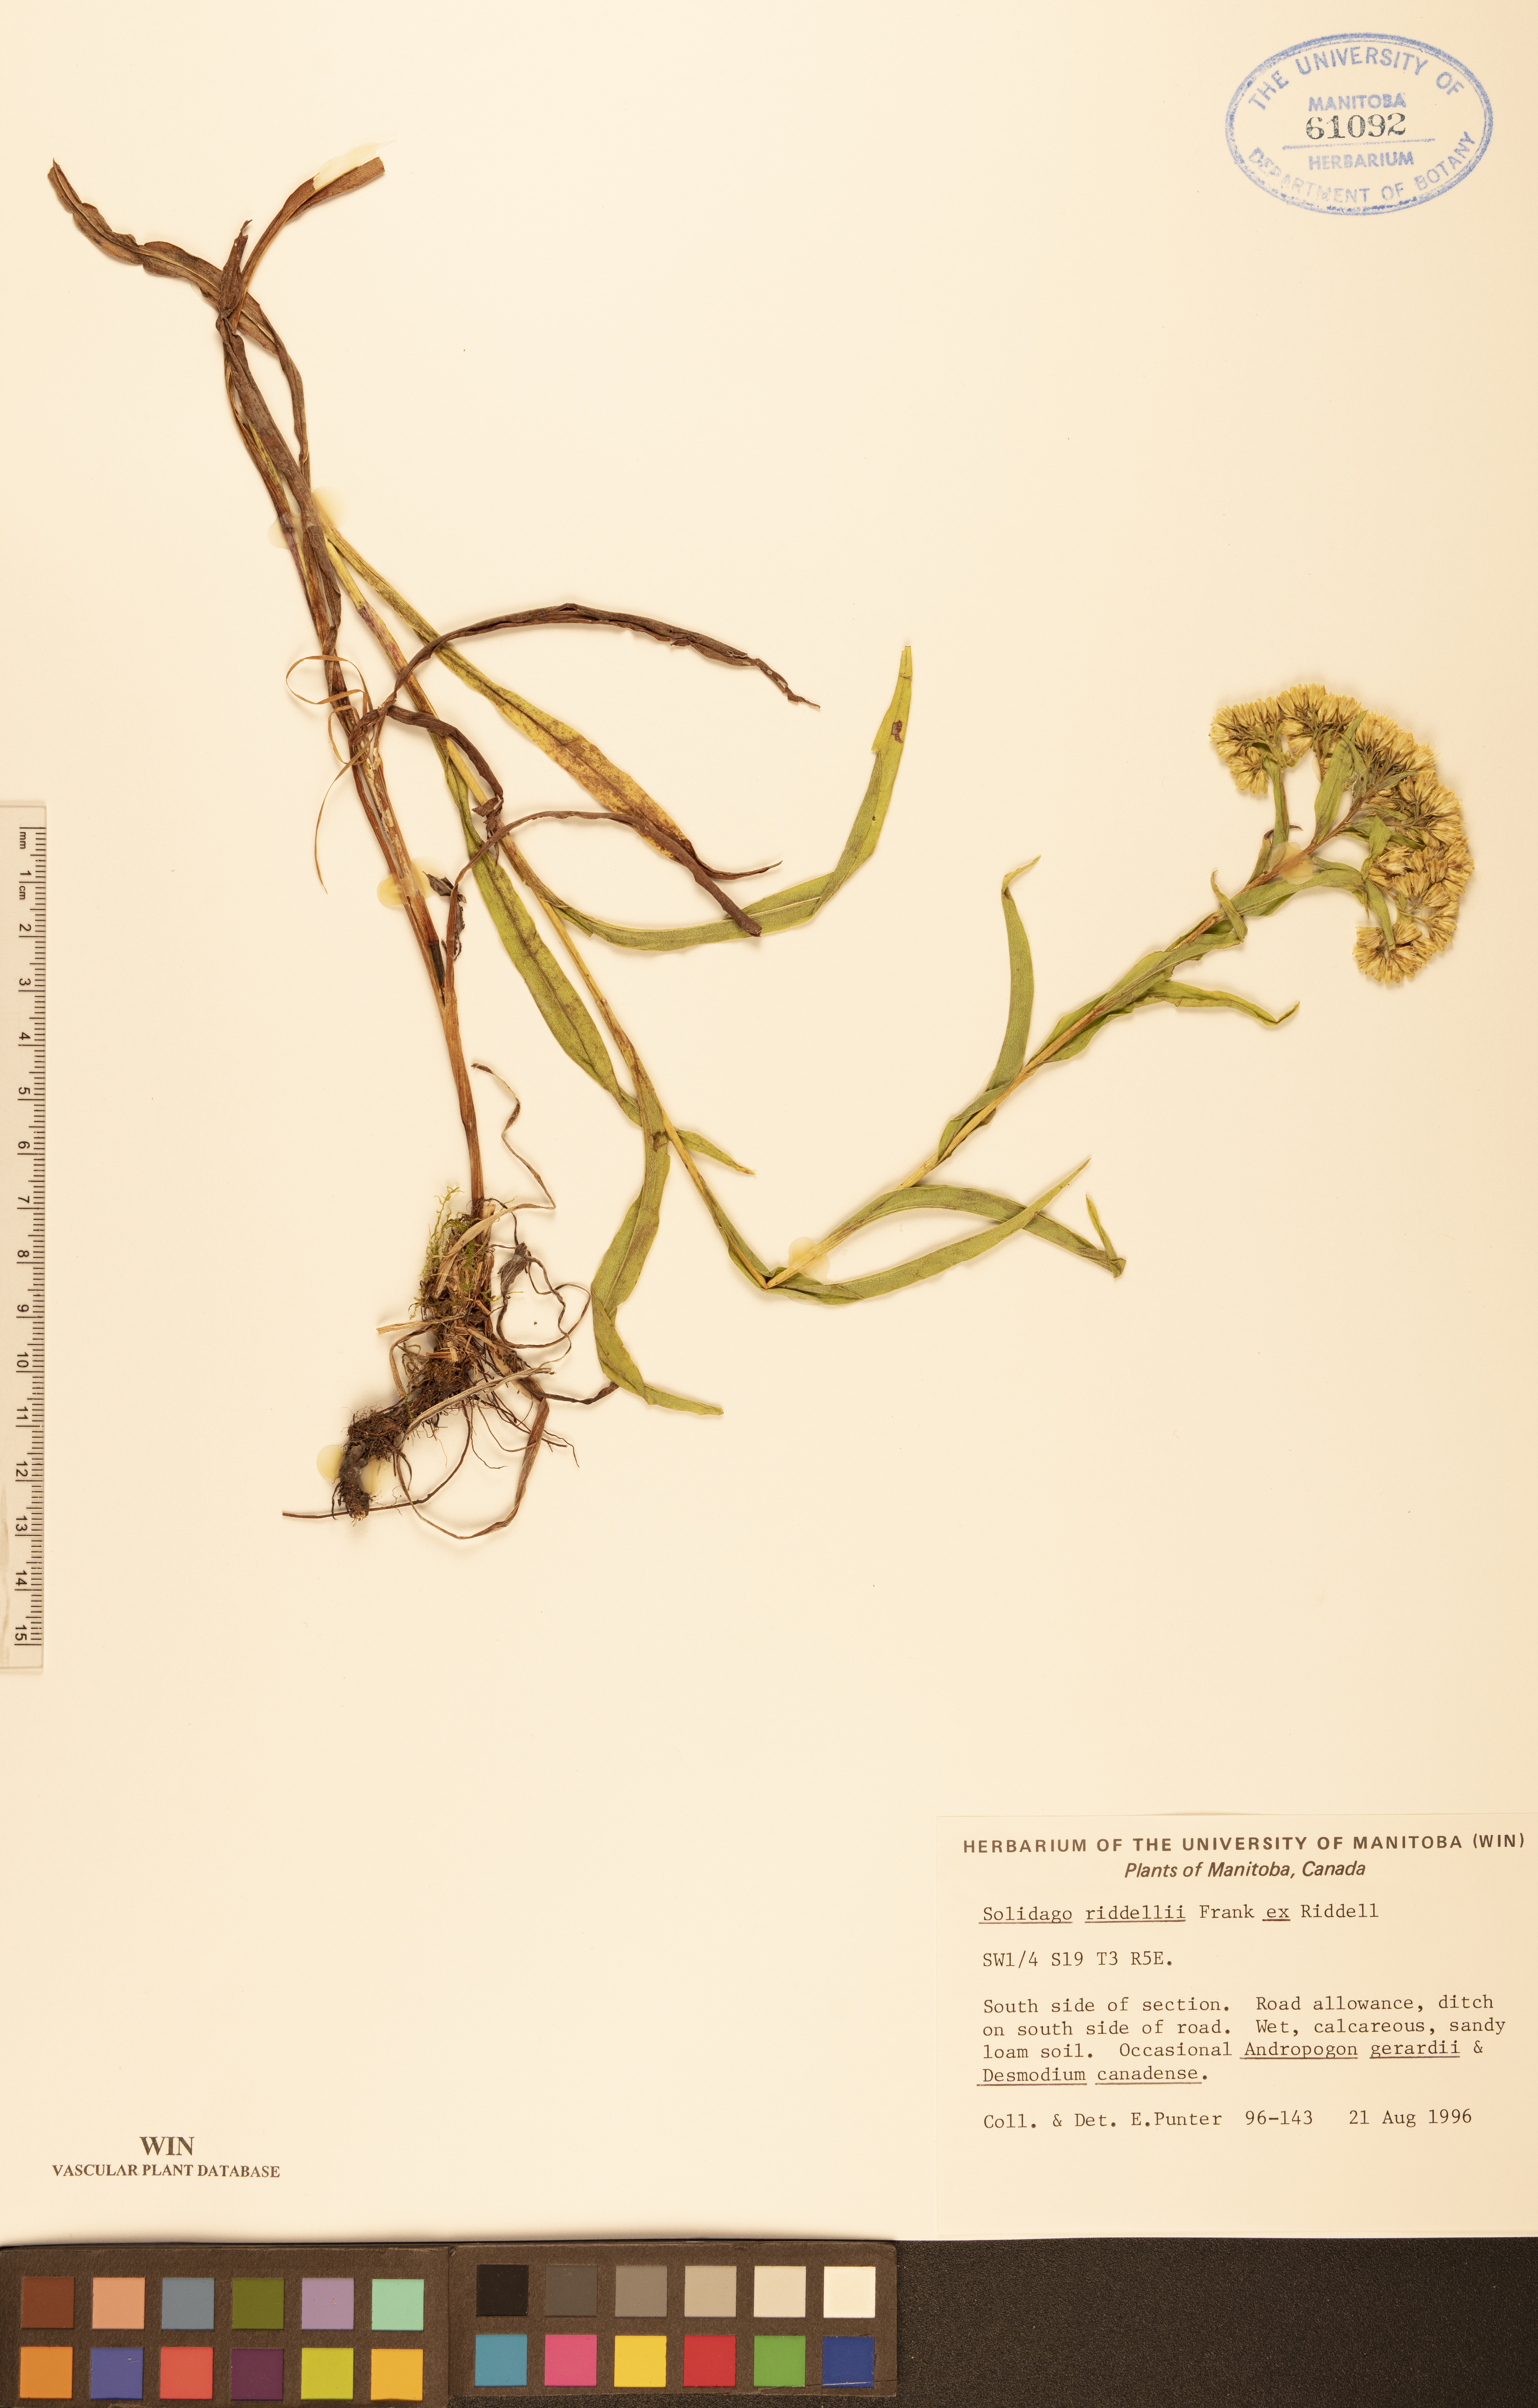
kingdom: Plantae
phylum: Tracheophyta
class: Magnoliopsida
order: Asterales
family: Asteraceae
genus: Solidago
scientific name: Solidago riddellii
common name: Riddell's goldenrod
